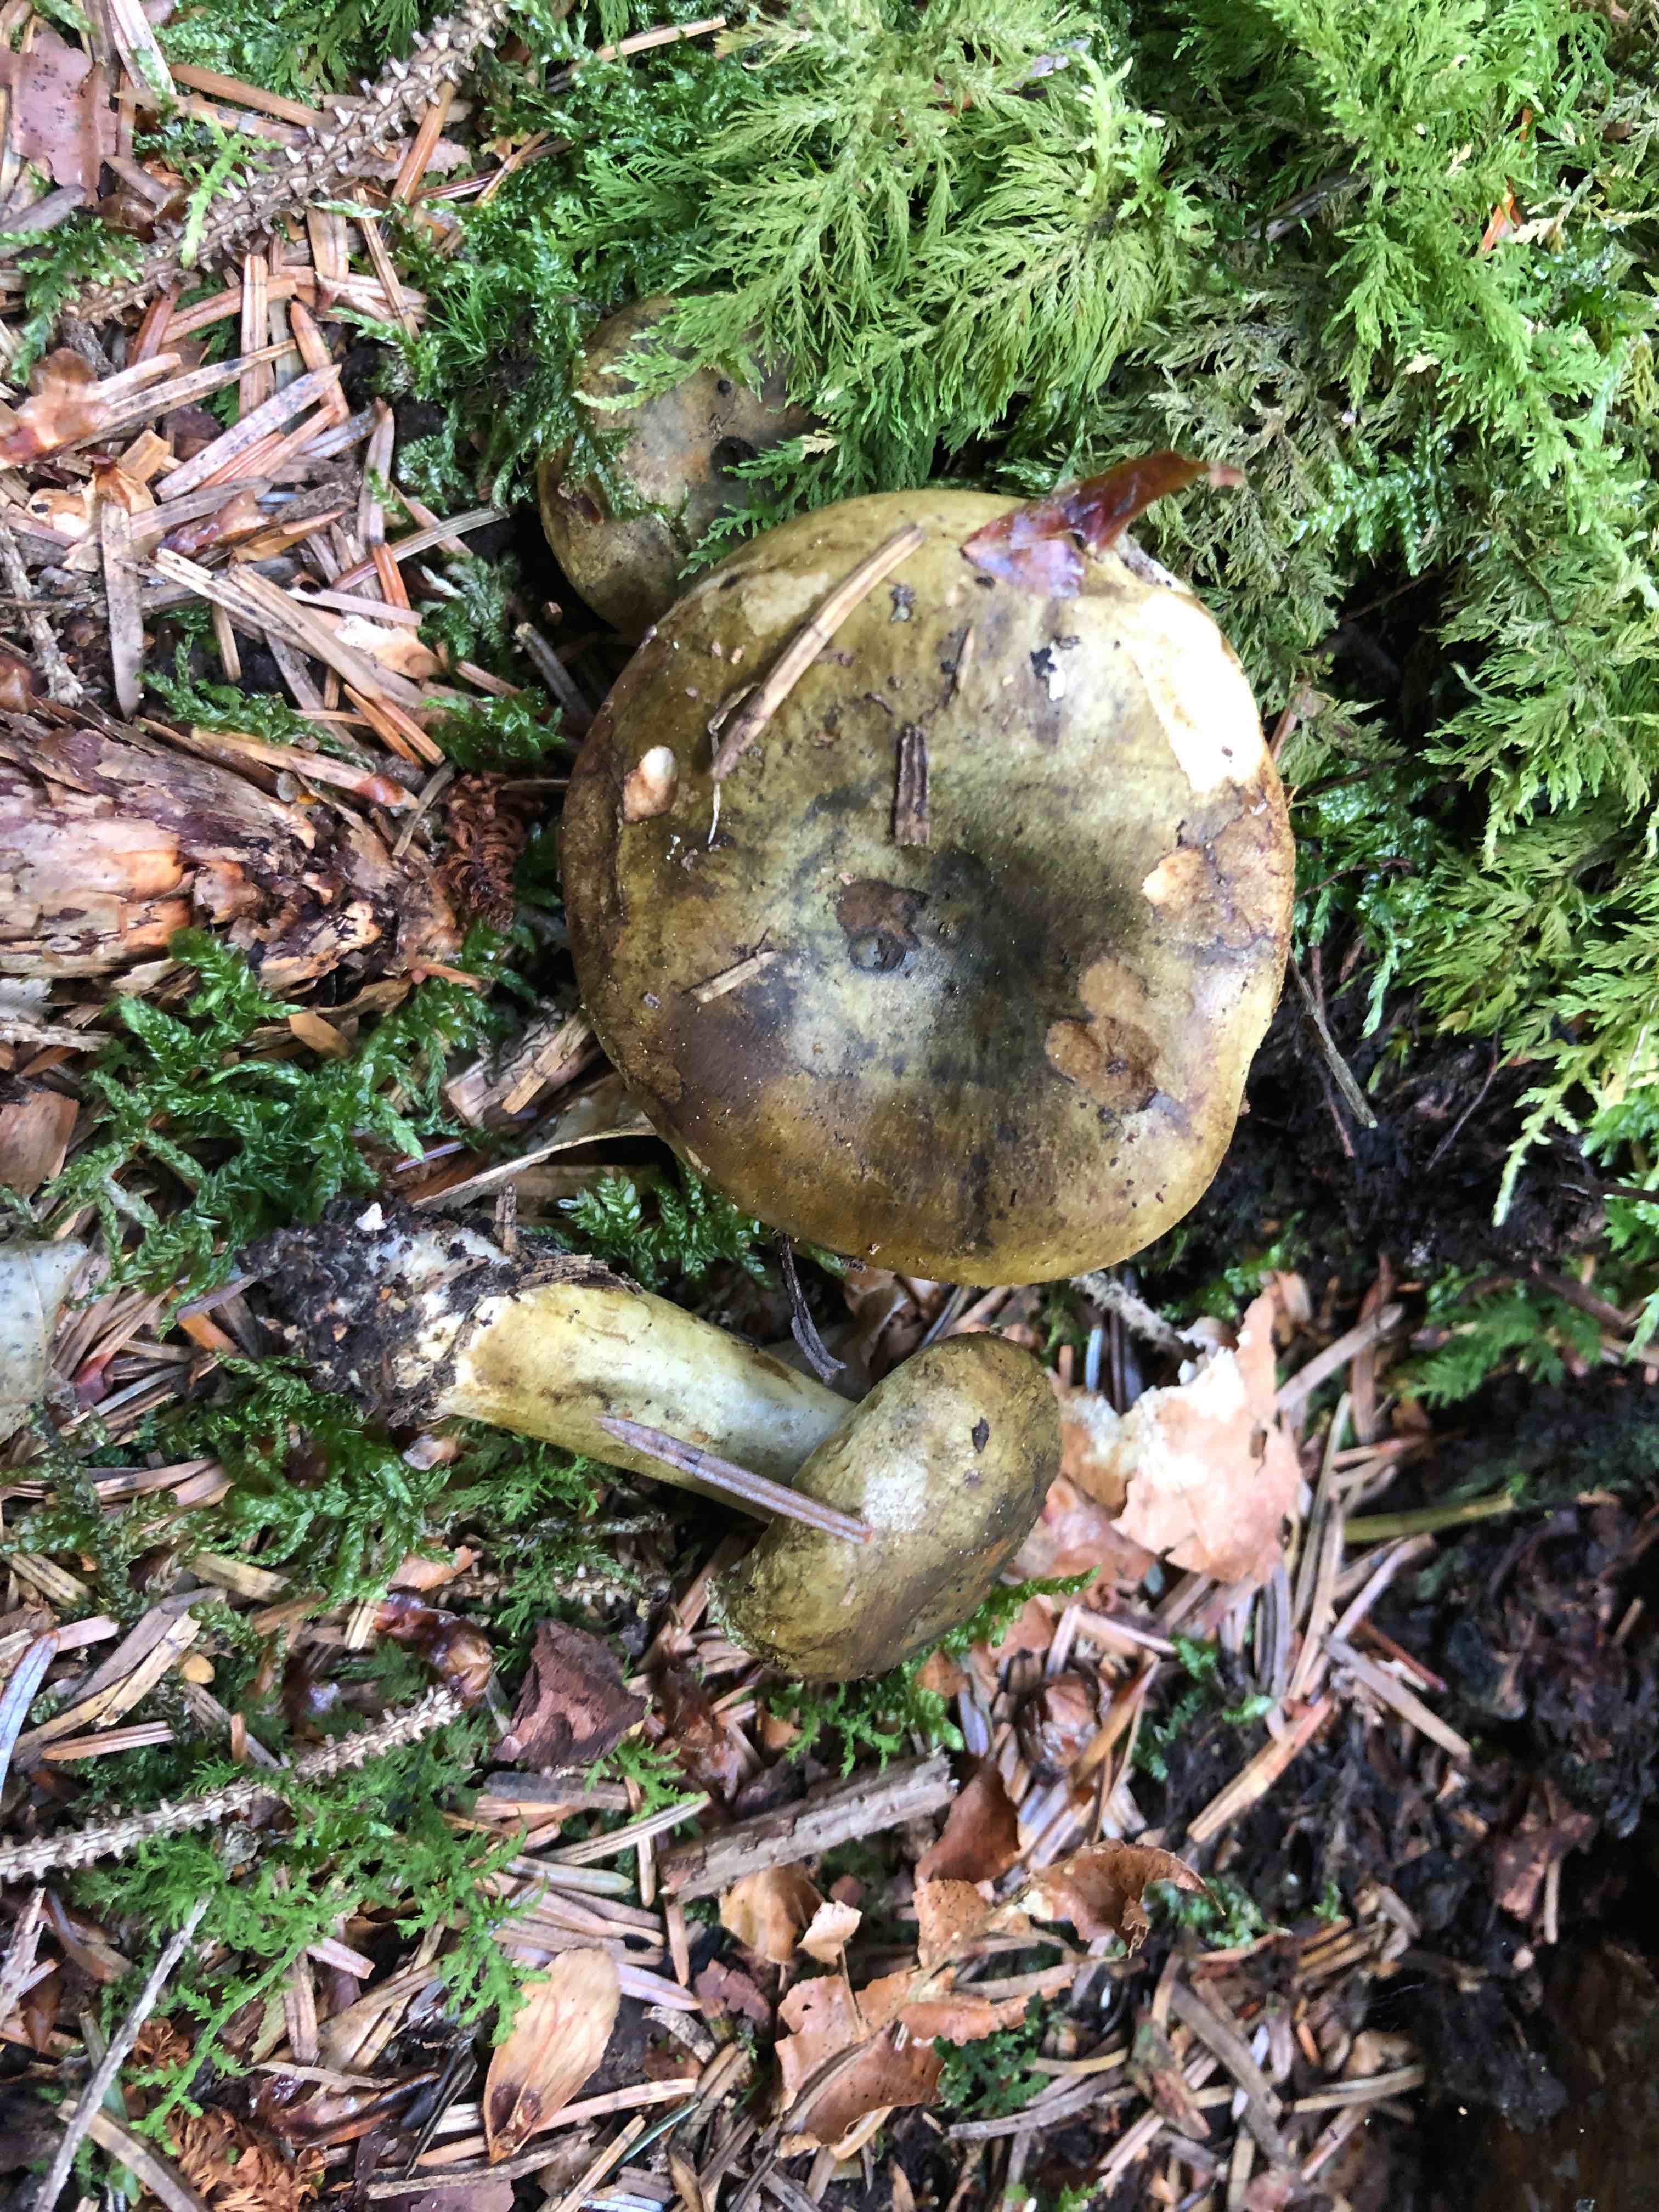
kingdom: Fungi
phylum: Basidiomycota
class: Agaricomycetes
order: Russulales
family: Russulaceae
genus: Lactarius
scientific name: Lactarius necator
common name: manddraber-mælkehat
